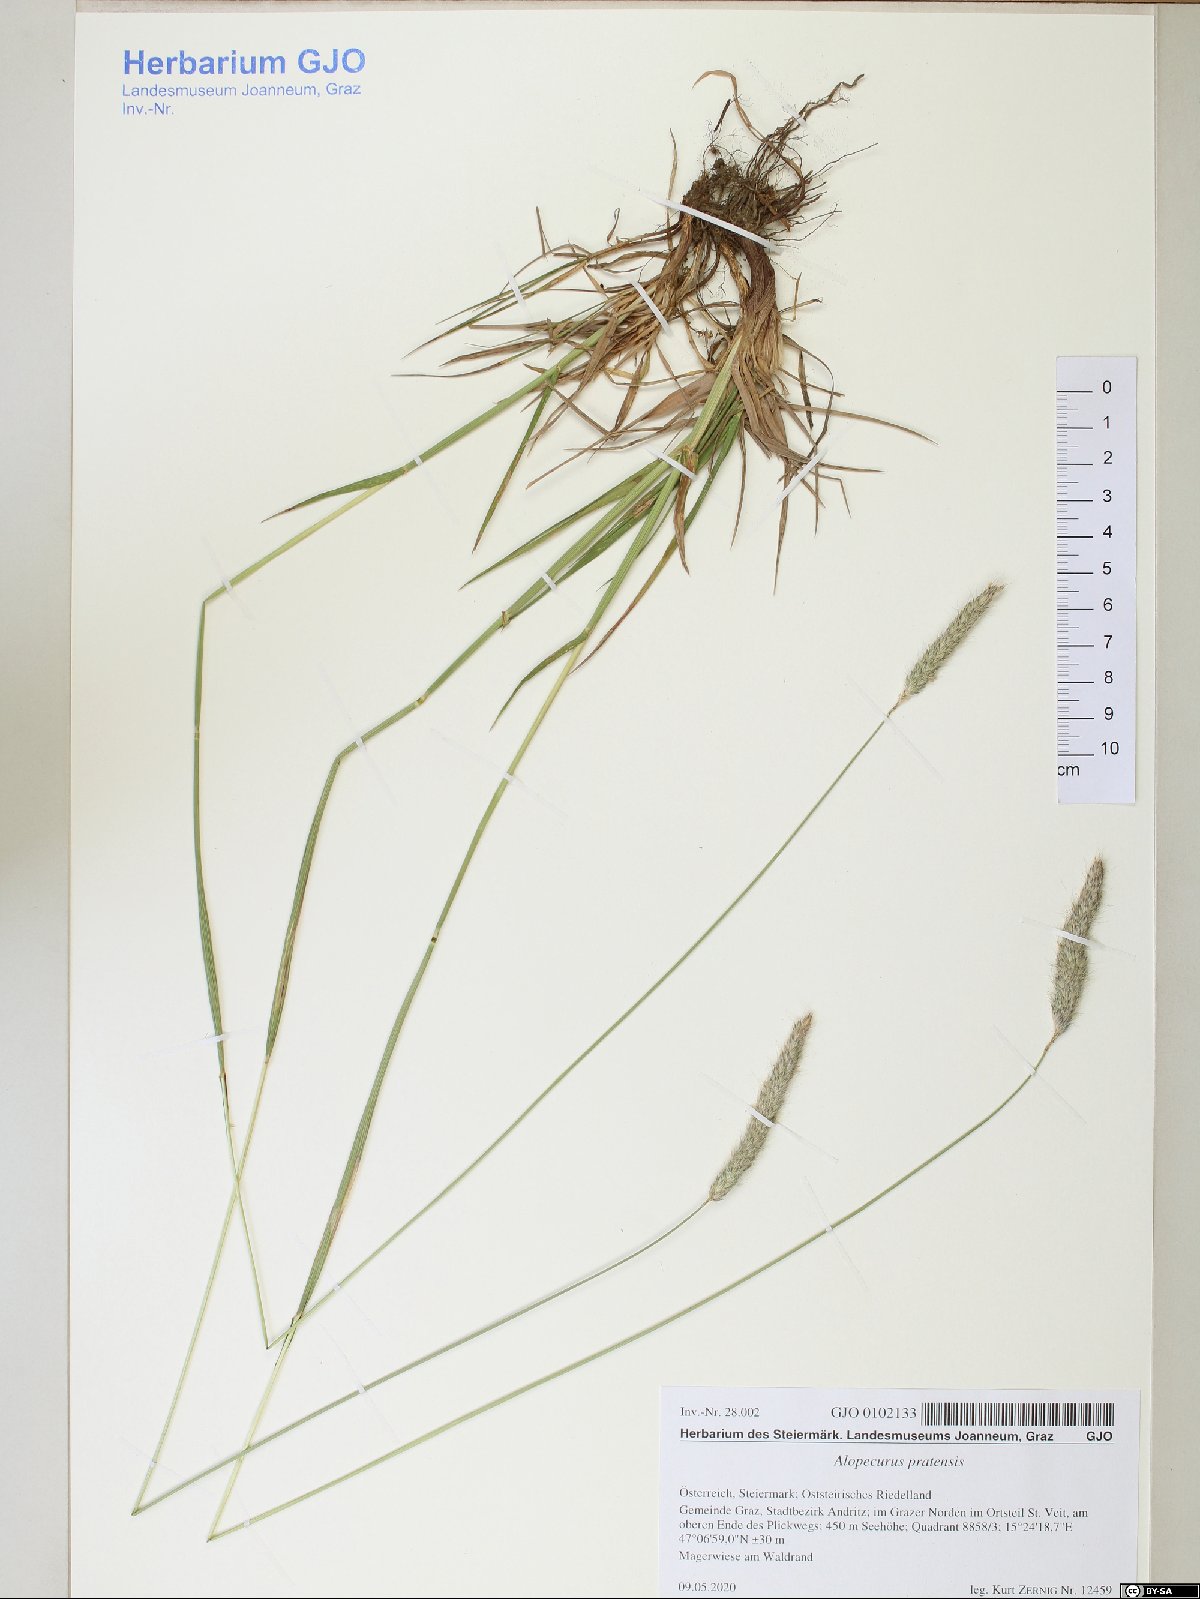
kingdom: Plantae
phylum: Tracheophyta
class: Liliopsida
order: Poales
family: Poaceae
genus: Alopecurus
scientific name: Alopecurus pratensis
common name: Meadow foxtail
